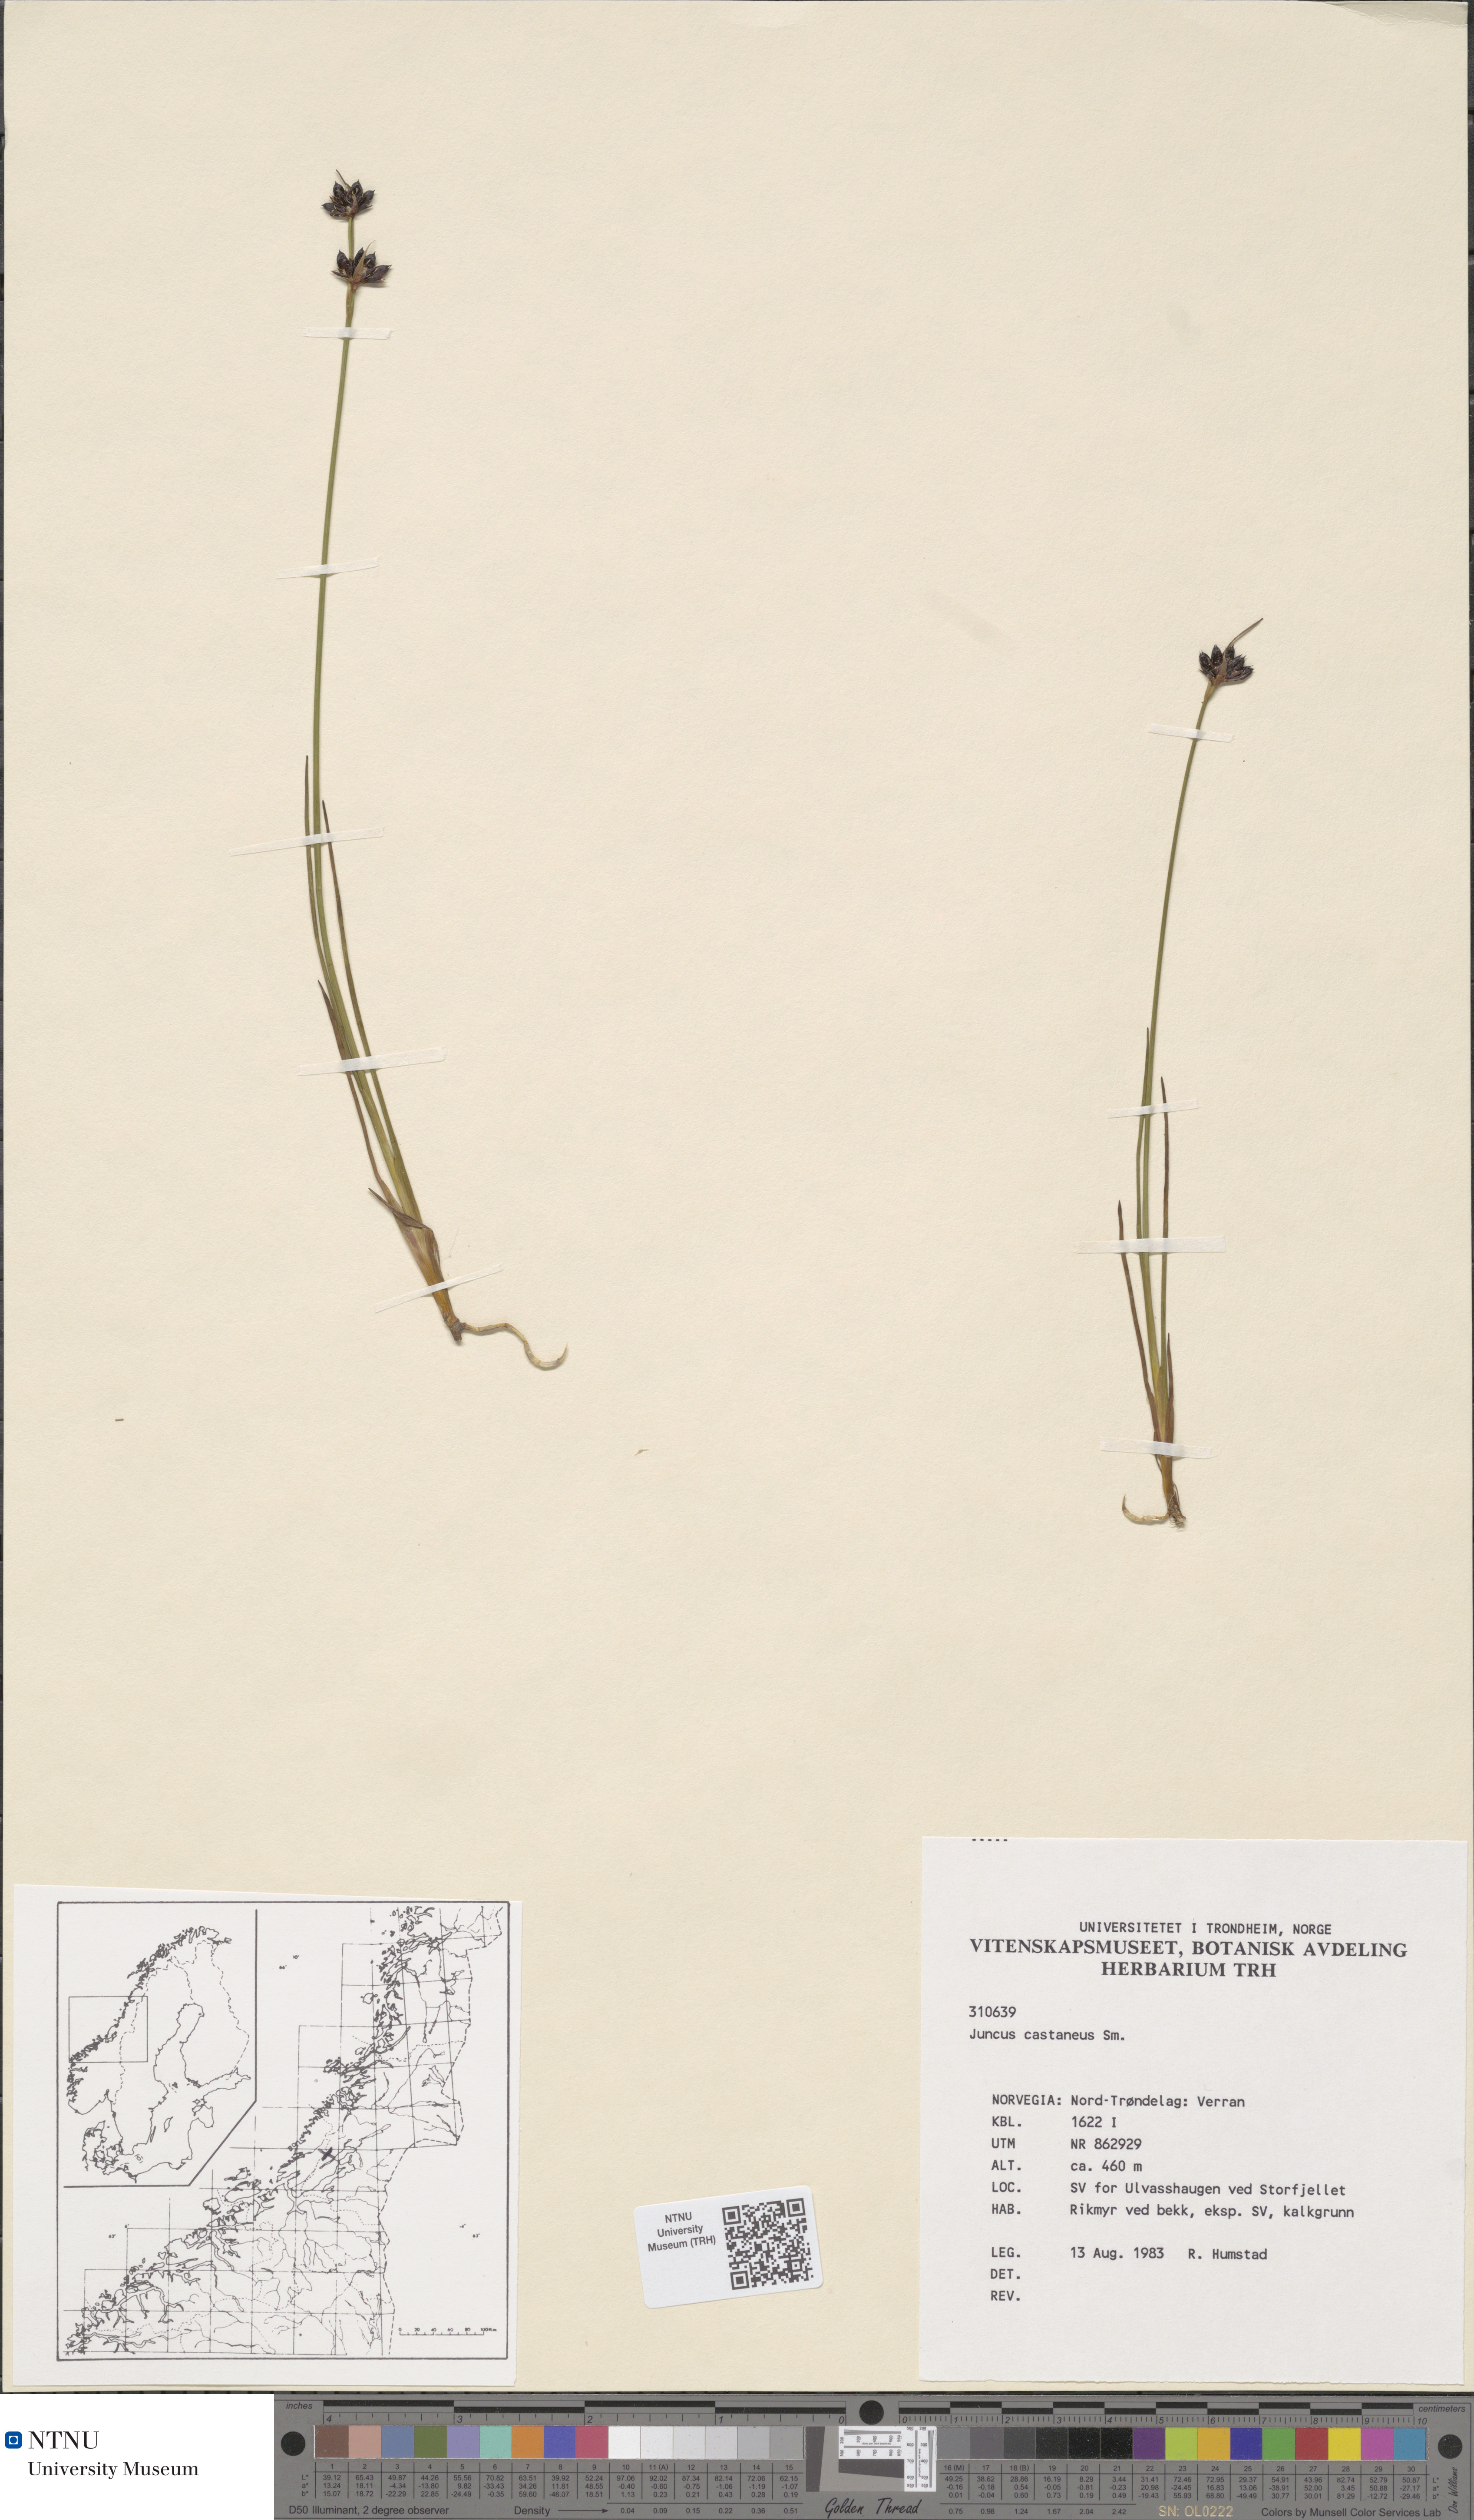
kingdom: Plantae
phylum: Tracheophyta
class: Liliopsida
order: Poales
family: Juncaceae
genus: Juncus
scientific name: Juncus castaneus
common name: Chestnut rush
